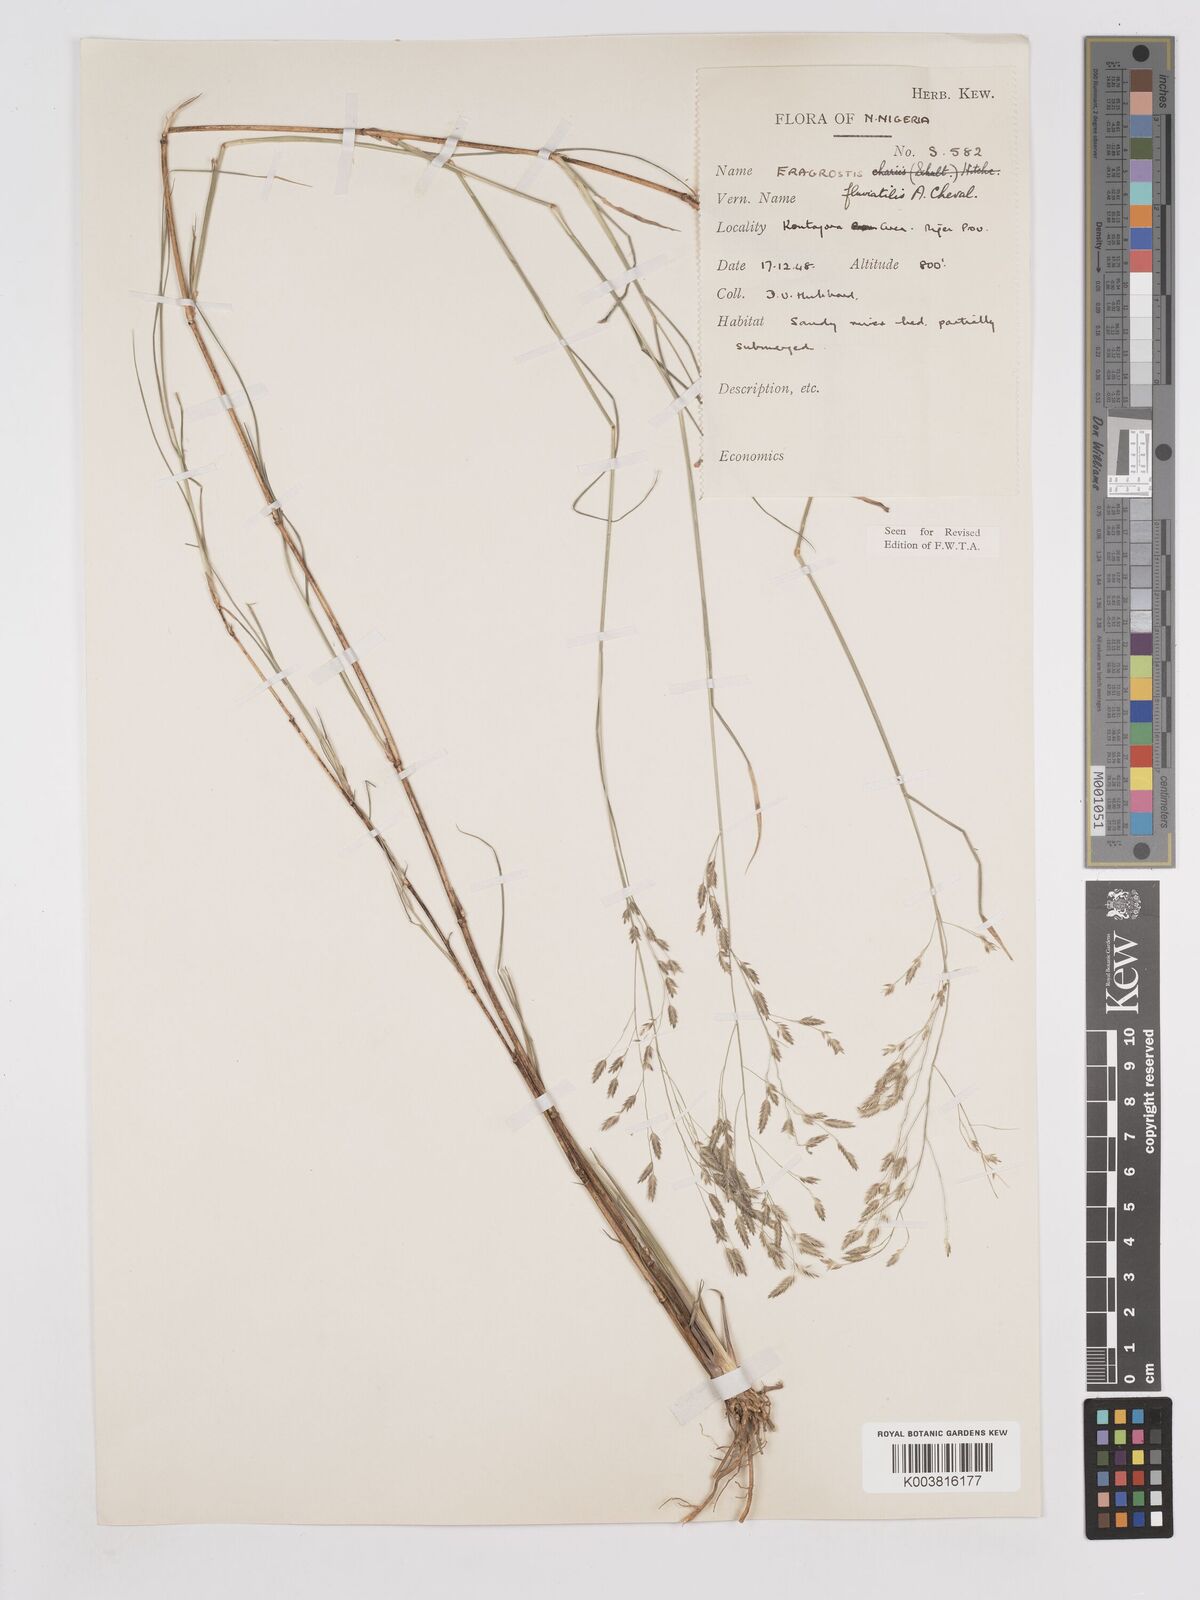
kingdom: Plantae
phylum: Tracheophyta
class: Liliopsida
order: Poales
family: Poaceae
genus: Eragrostis
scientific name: Eragrostis barteri
